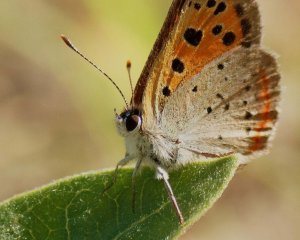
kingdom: Animalia
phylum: Arthropoda
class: Insecta
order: Lepidoptera
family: Lycaenidae
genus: Lycaena
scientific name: Lycaena phlaeas
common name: American Copper
